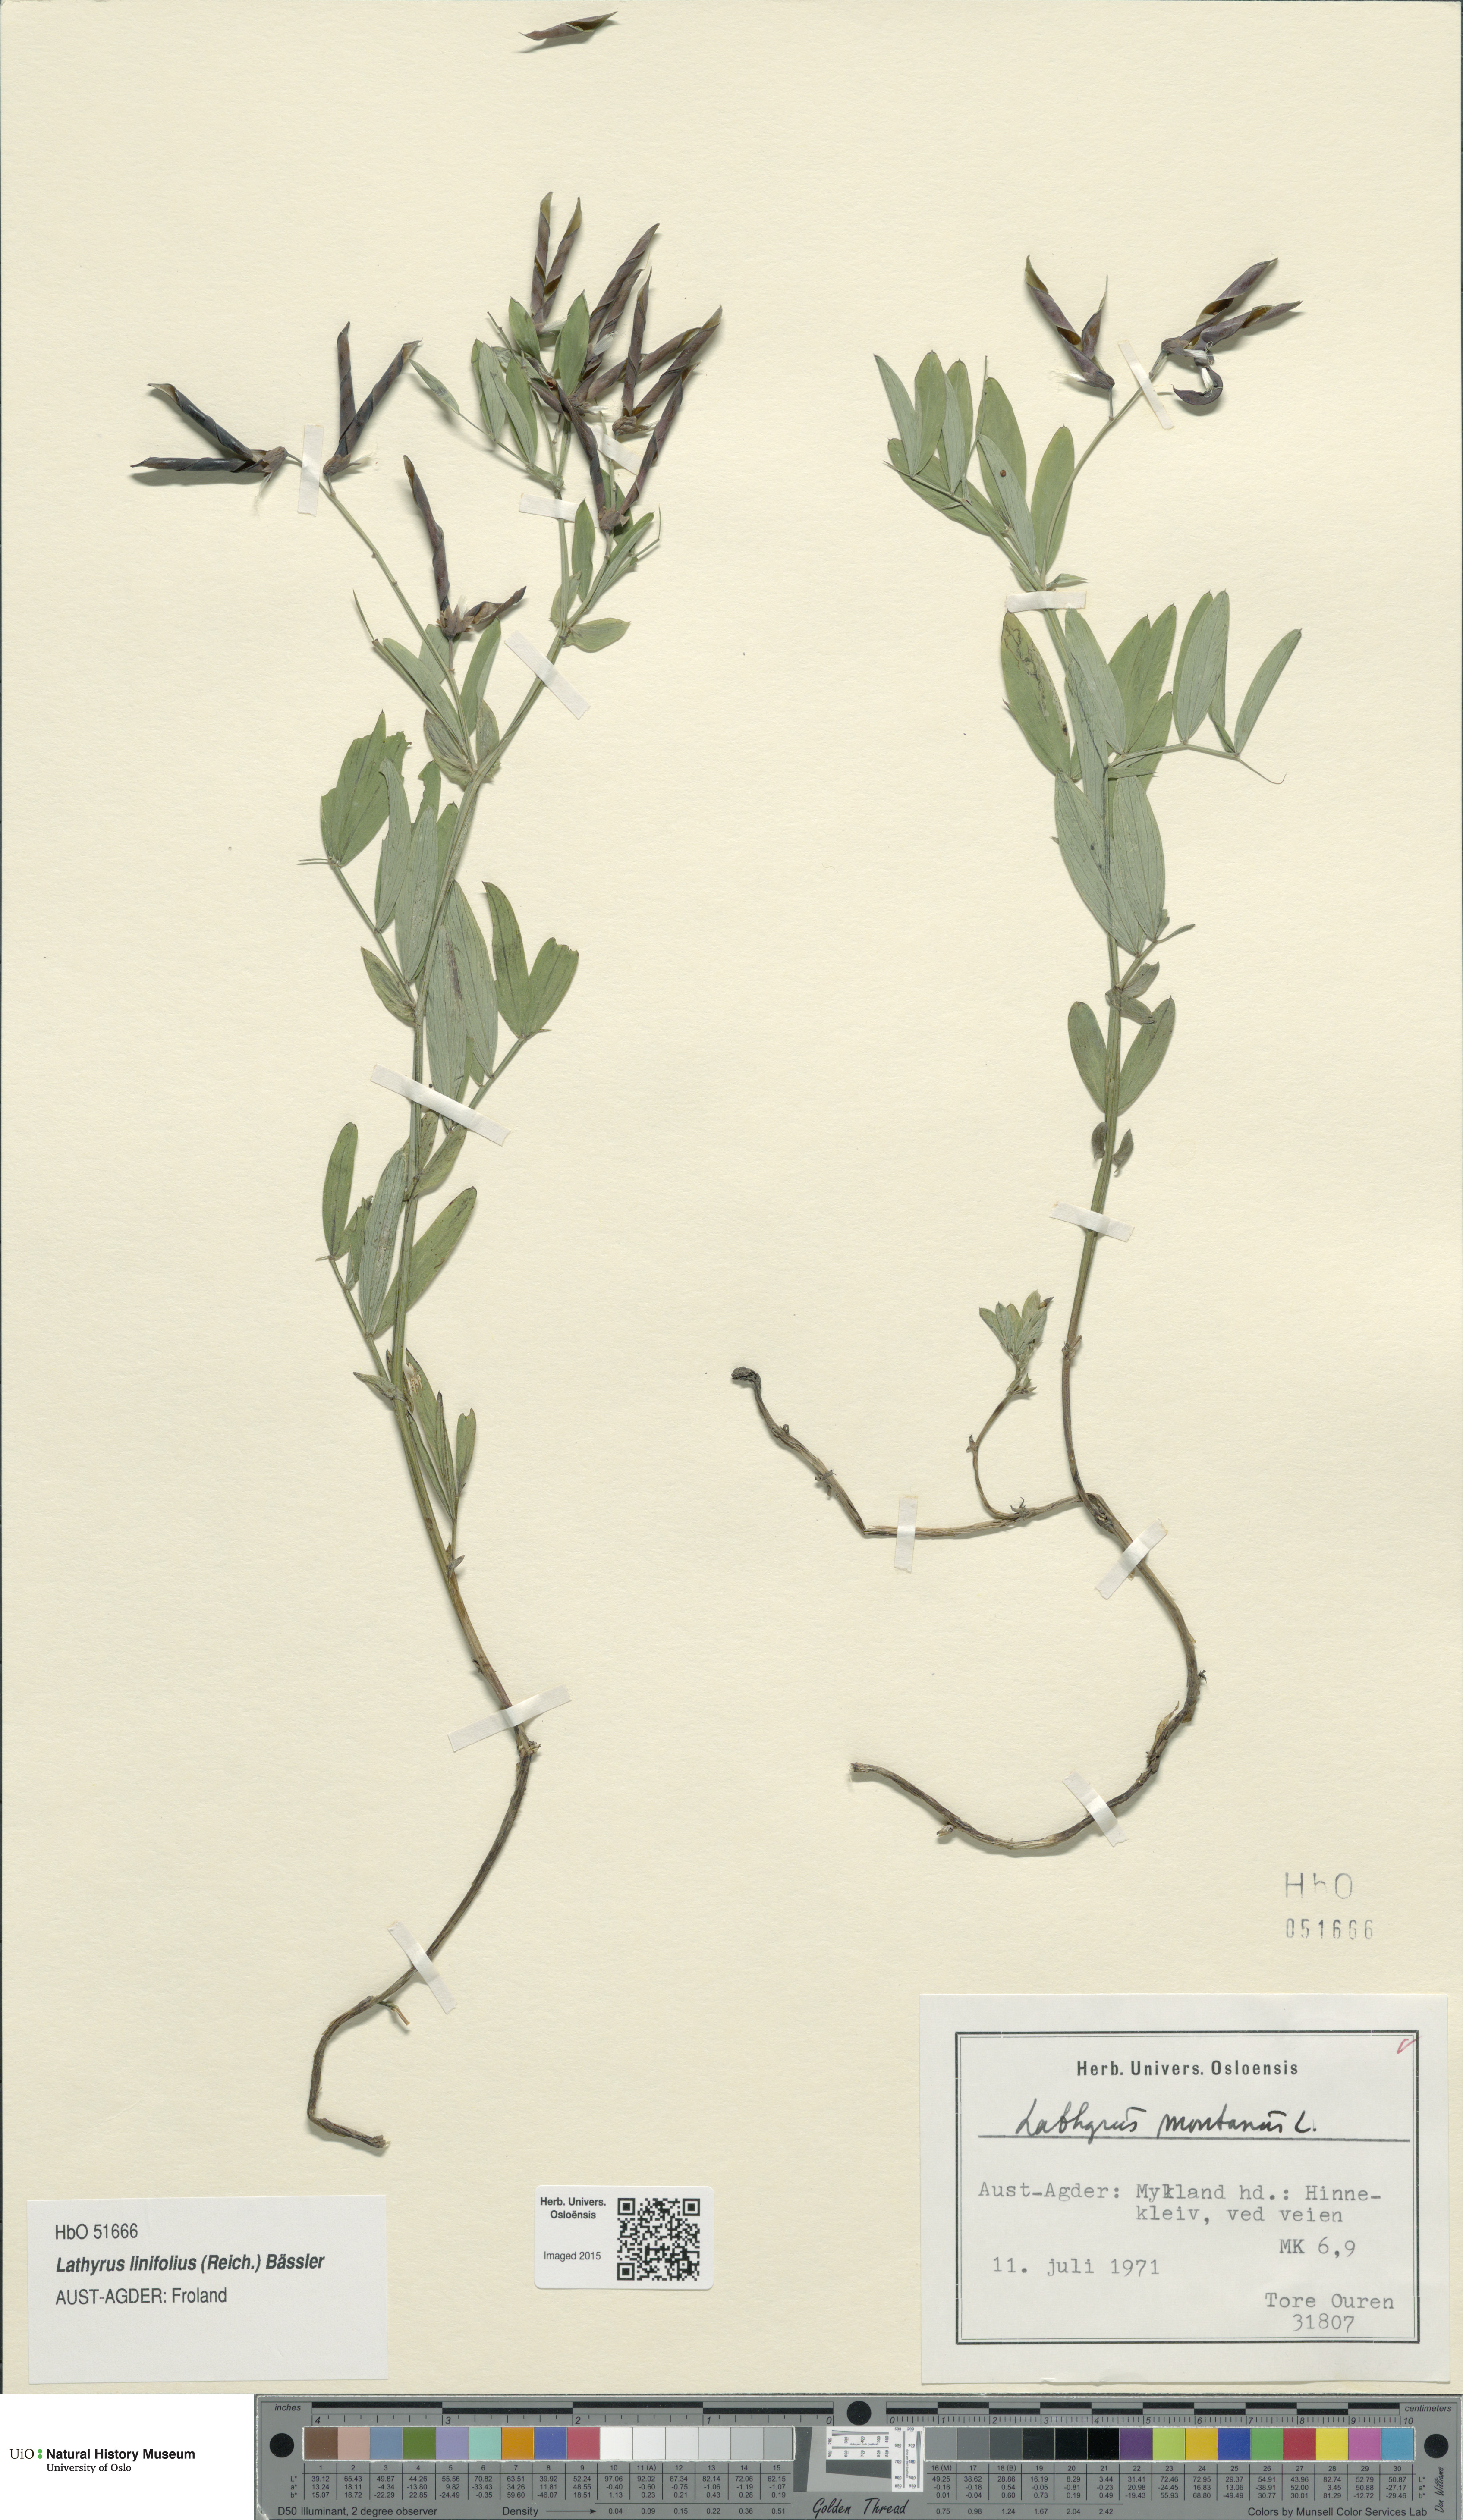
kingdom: Plantae
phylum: Tracheophyta
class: Magnoliopsida
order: Fabales
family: Fabaceae
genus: Lathyrus
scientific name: Lathyrus linifolius
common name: Bitter-vetch
